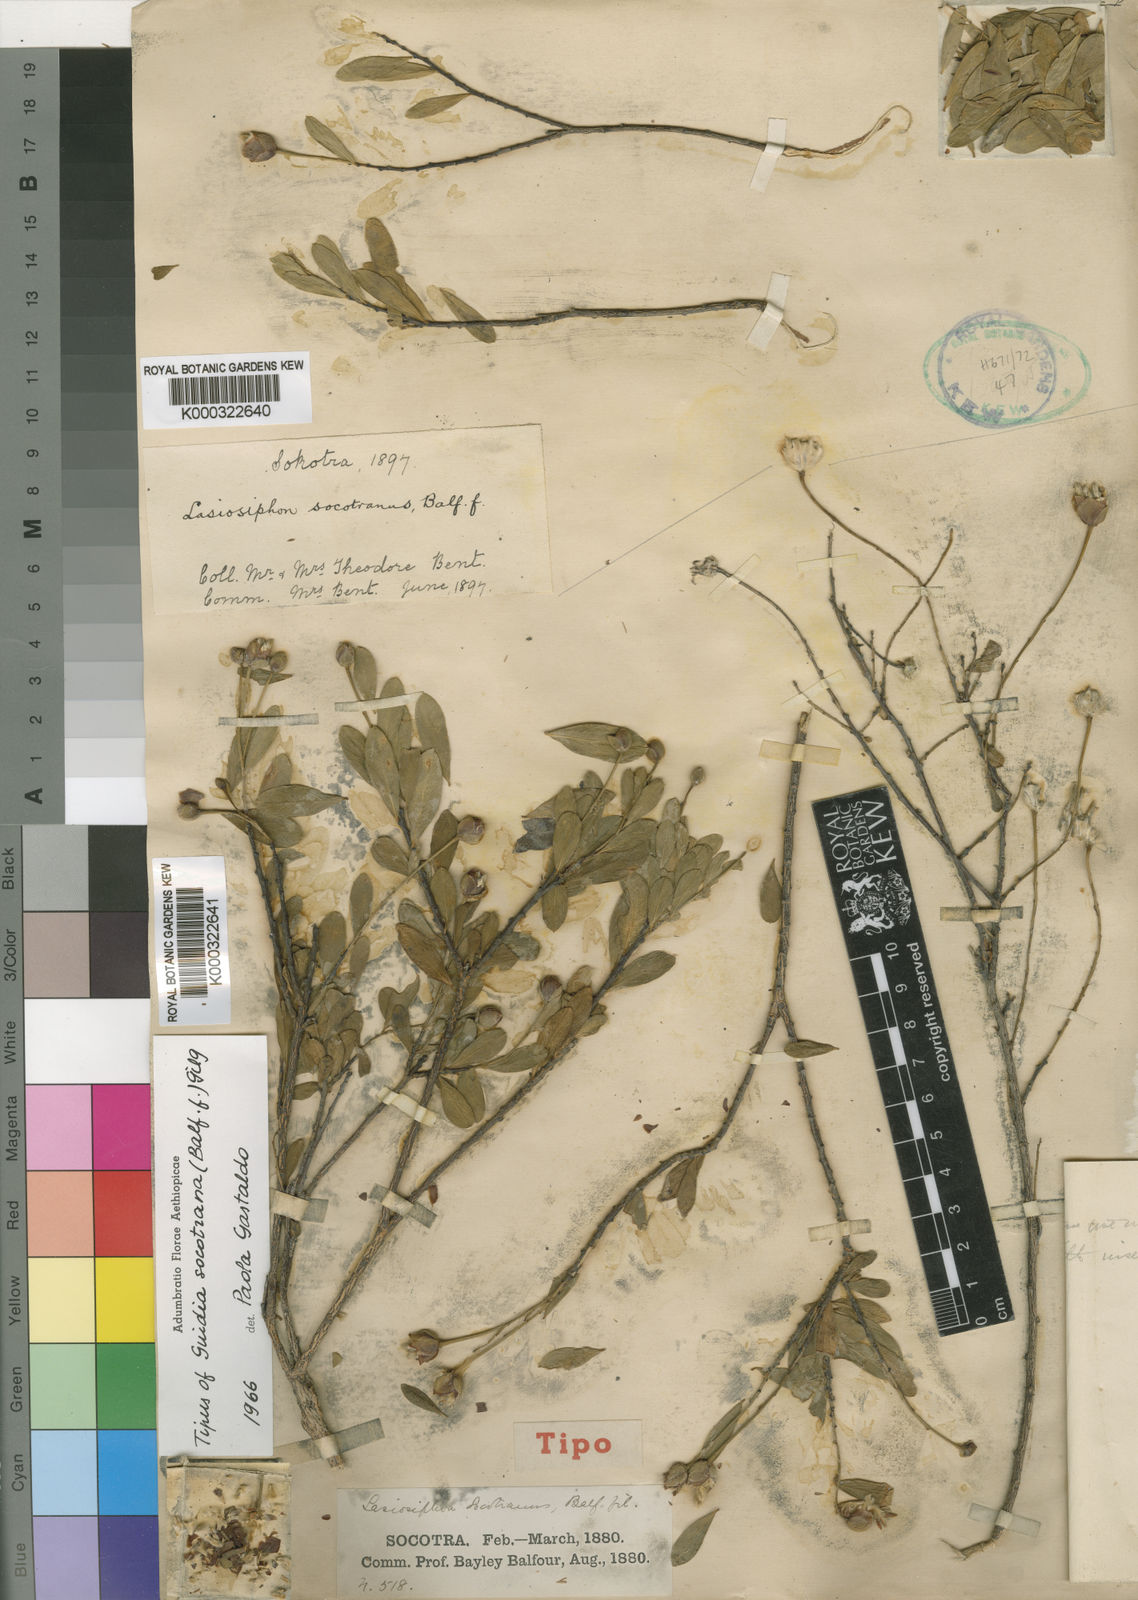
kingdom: Plantae
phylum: Tracheophyta
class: Magnoliopsida
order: Malvales
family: Thymelaeaceae
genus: Gnidia
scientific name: Gnidia socotrana
